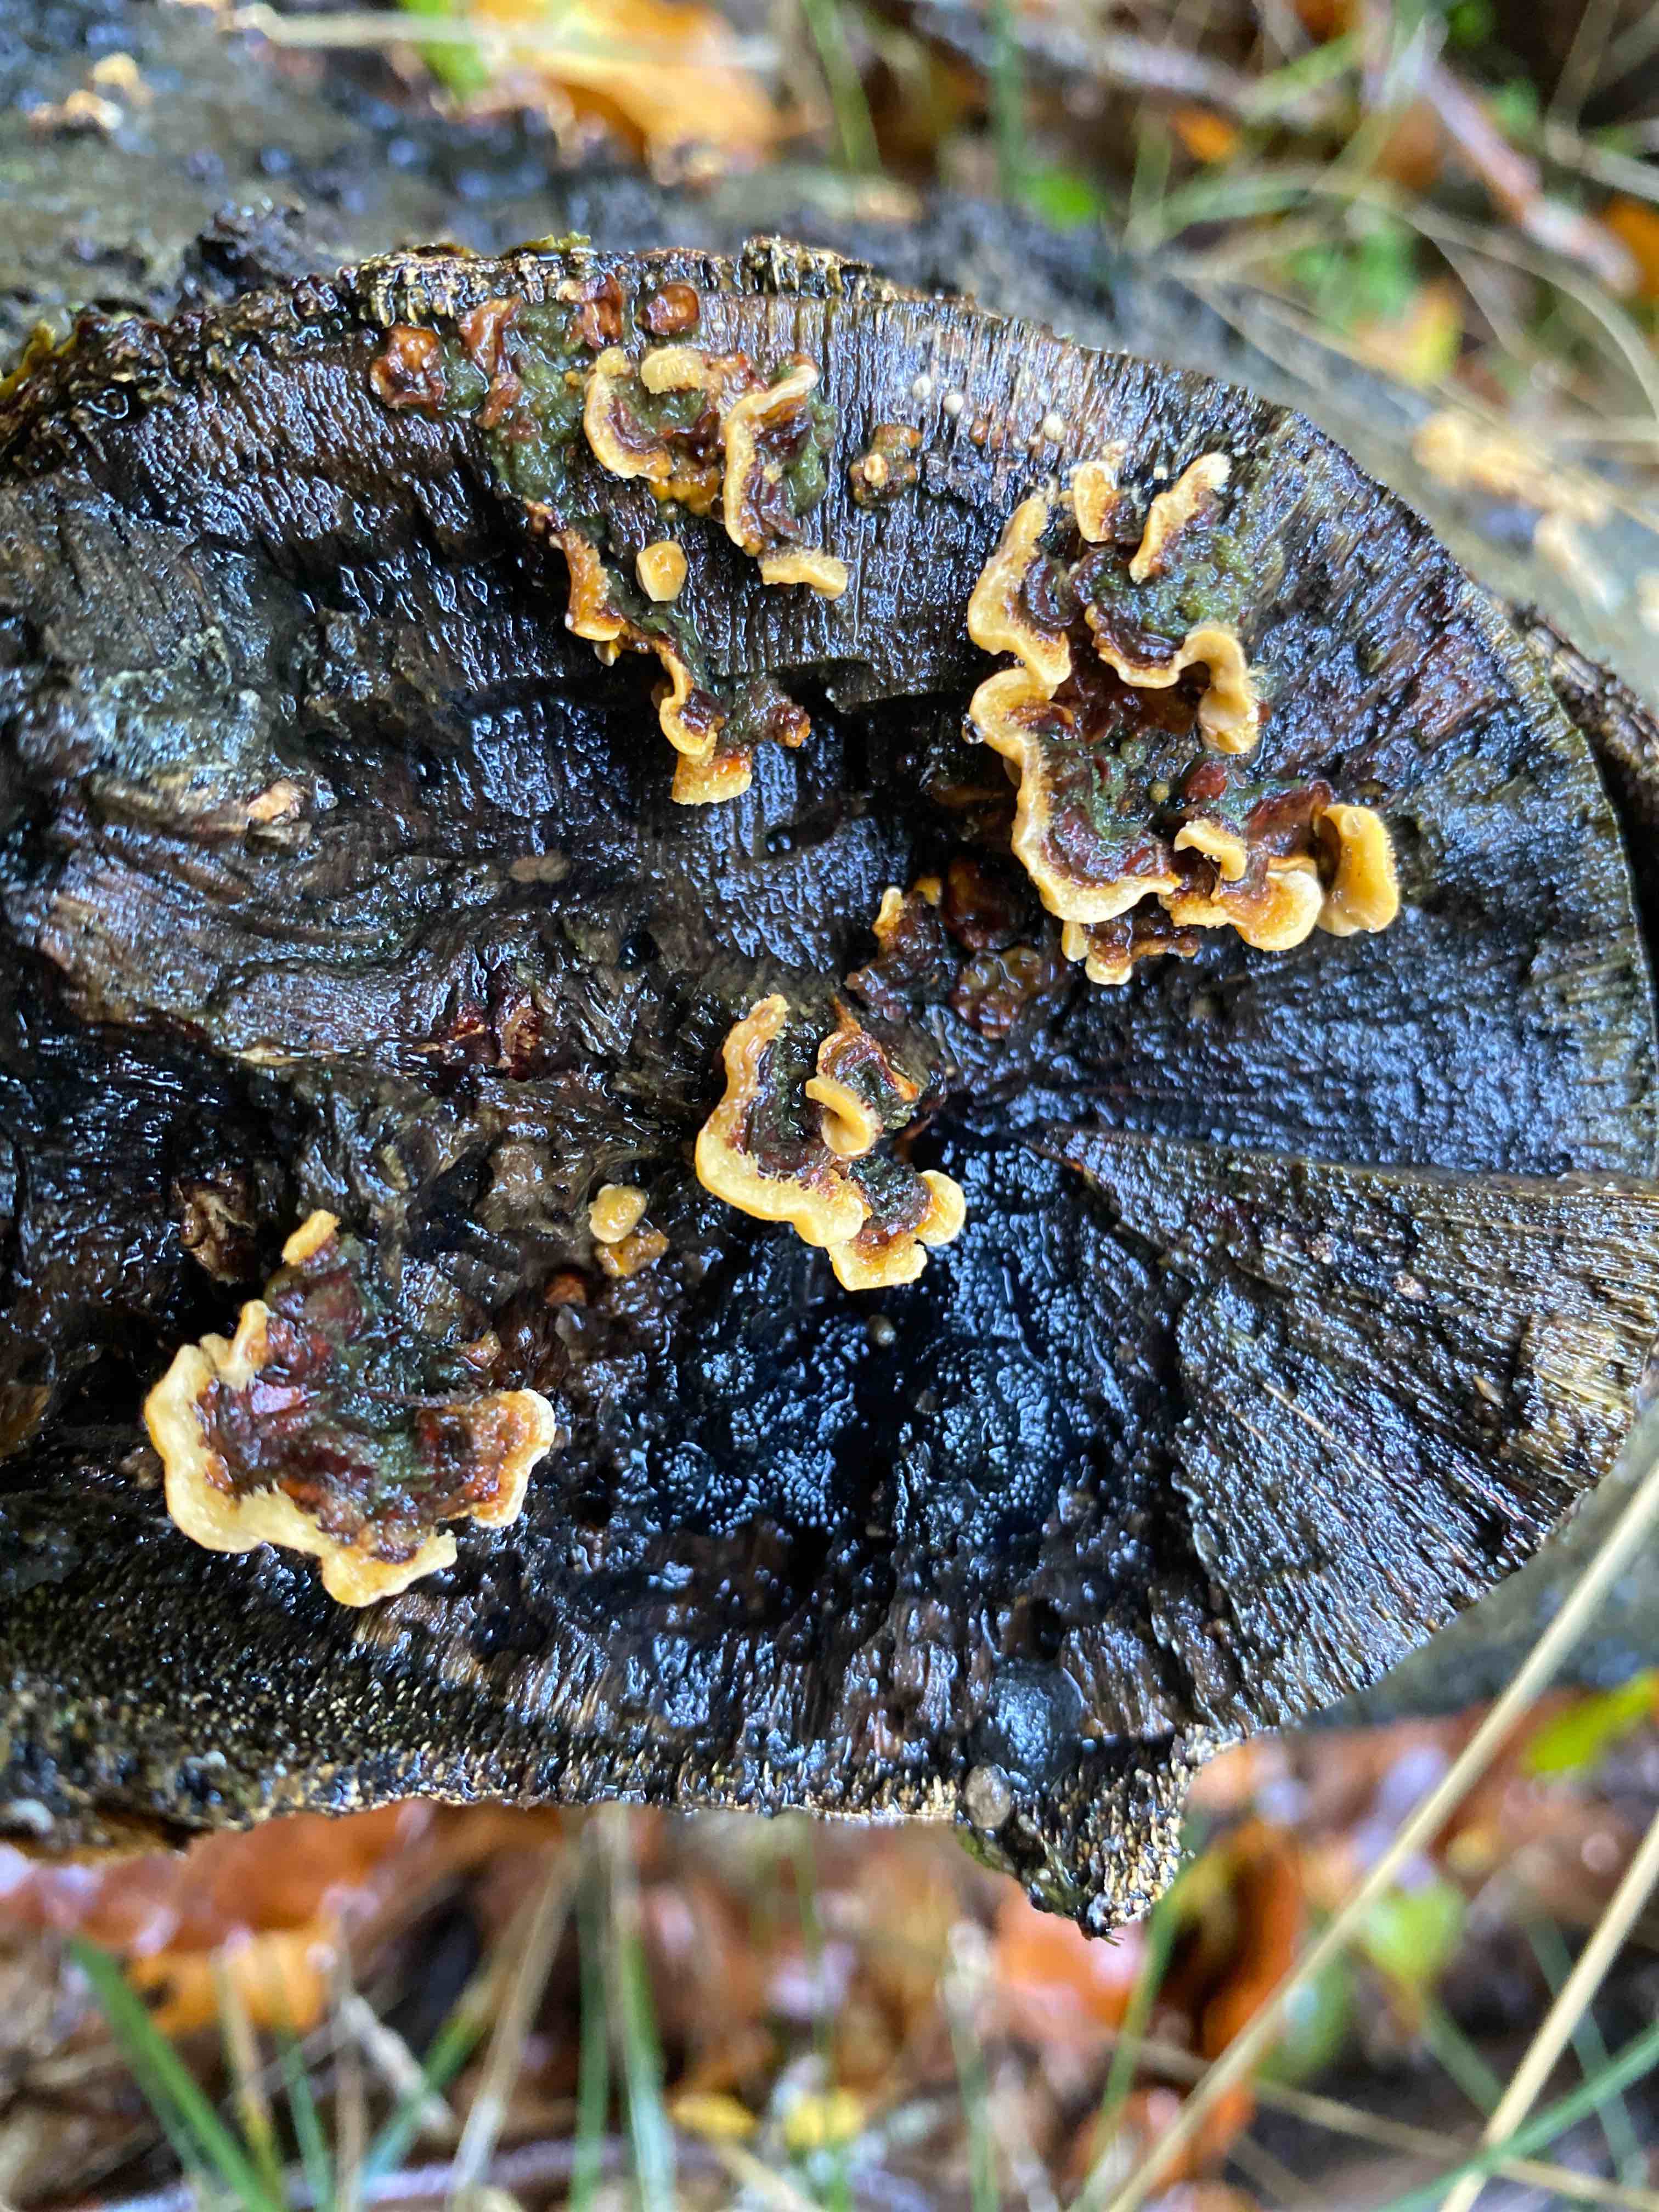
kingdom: Fungi
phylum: Basidiomycota
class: Agaricomycetes
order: Russulales
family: Stereaceae
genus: Stereum
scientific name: Stereum hirsutum
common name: håret lædersvamp
